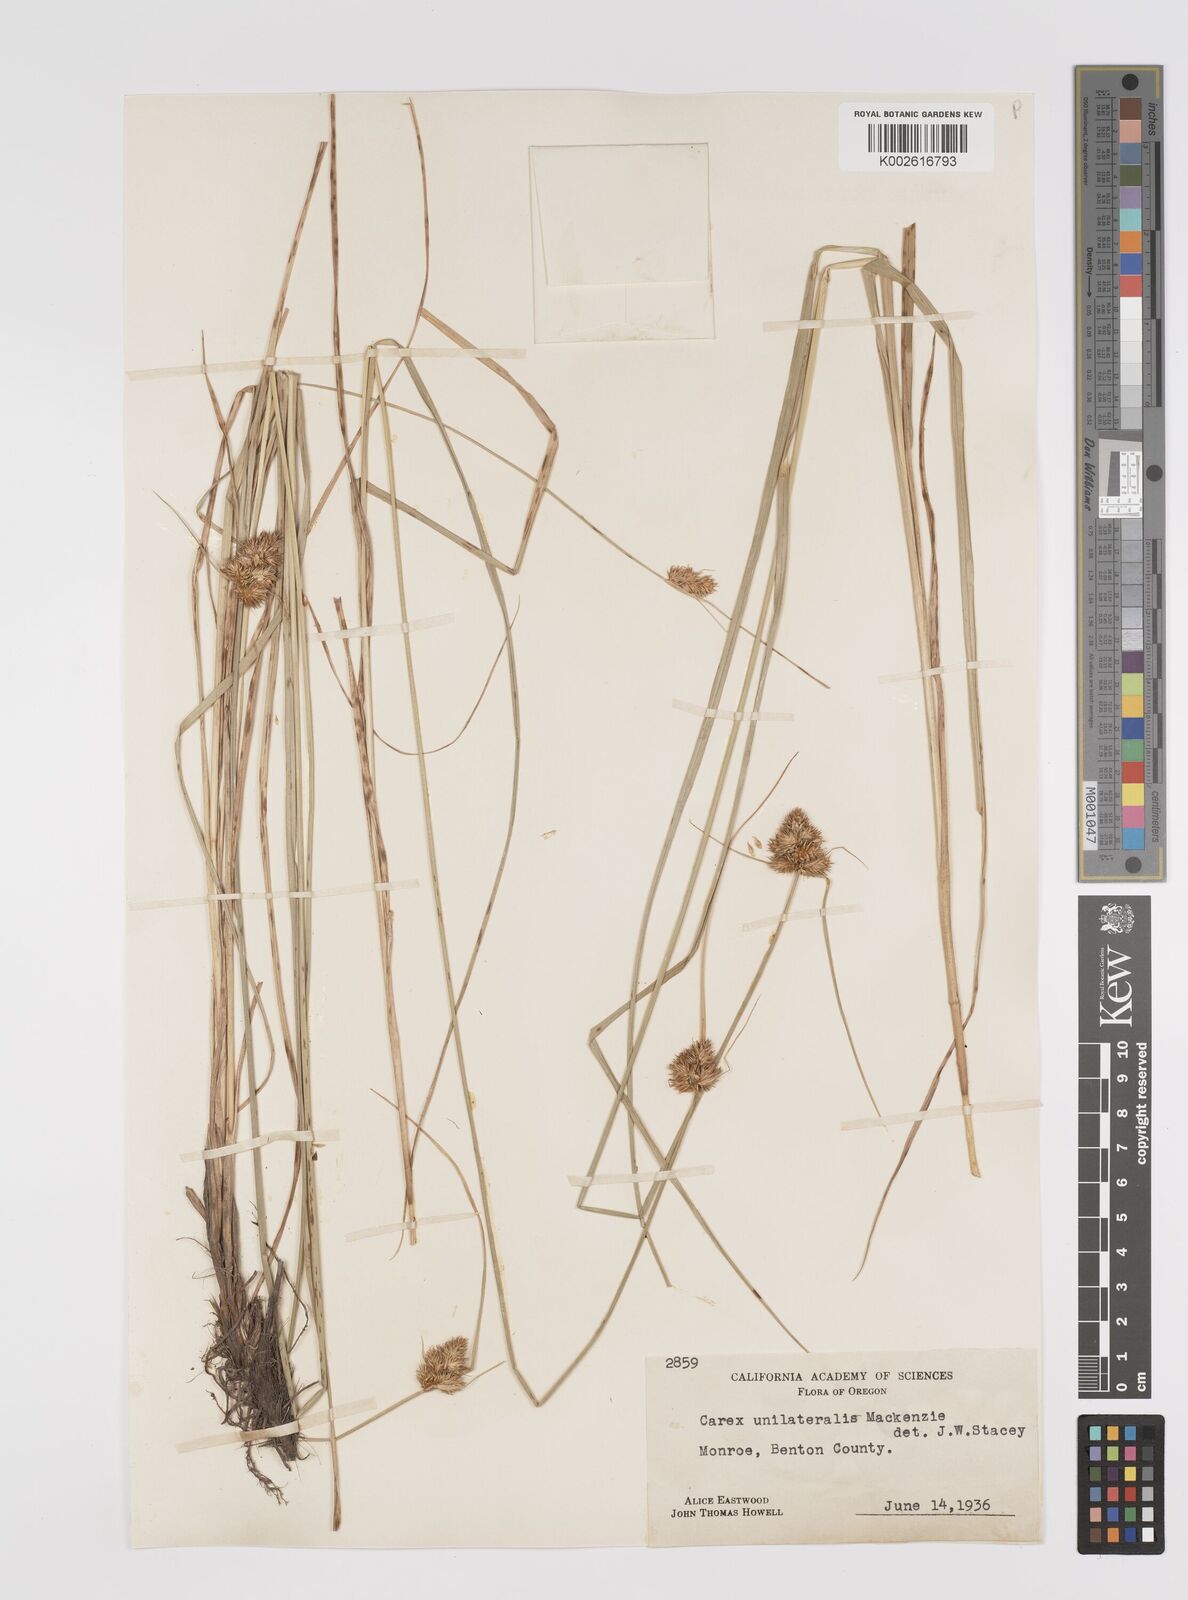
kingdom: Plantae
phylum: Tracheophyta
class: Liliopsida
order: Poales
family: Cyperaceae
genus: Carex
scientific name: Carex unilateralis
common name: Lateral sedge
